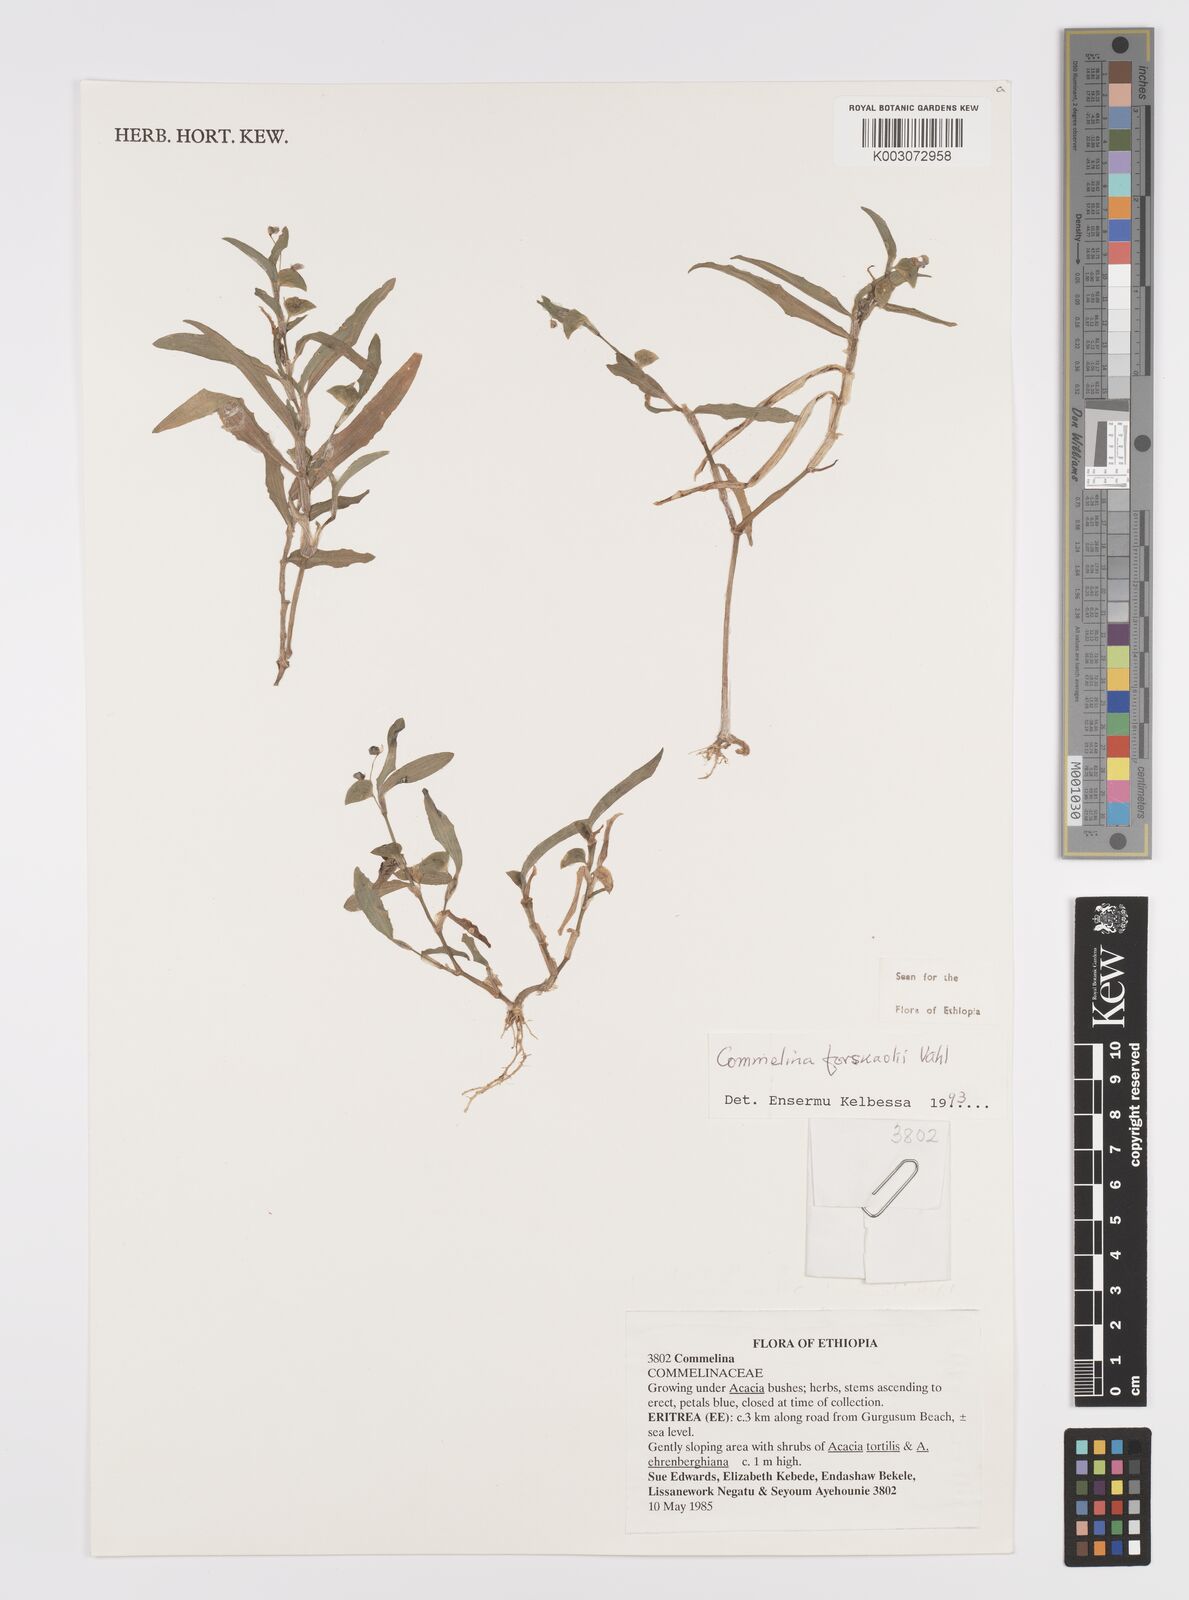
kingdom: Plantae
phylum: Tracheophyta
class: Liliopsida
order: Commelinales
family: Commelinaceae
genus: Commelina
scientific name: Commelina forskaolii
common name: Rat's ear
